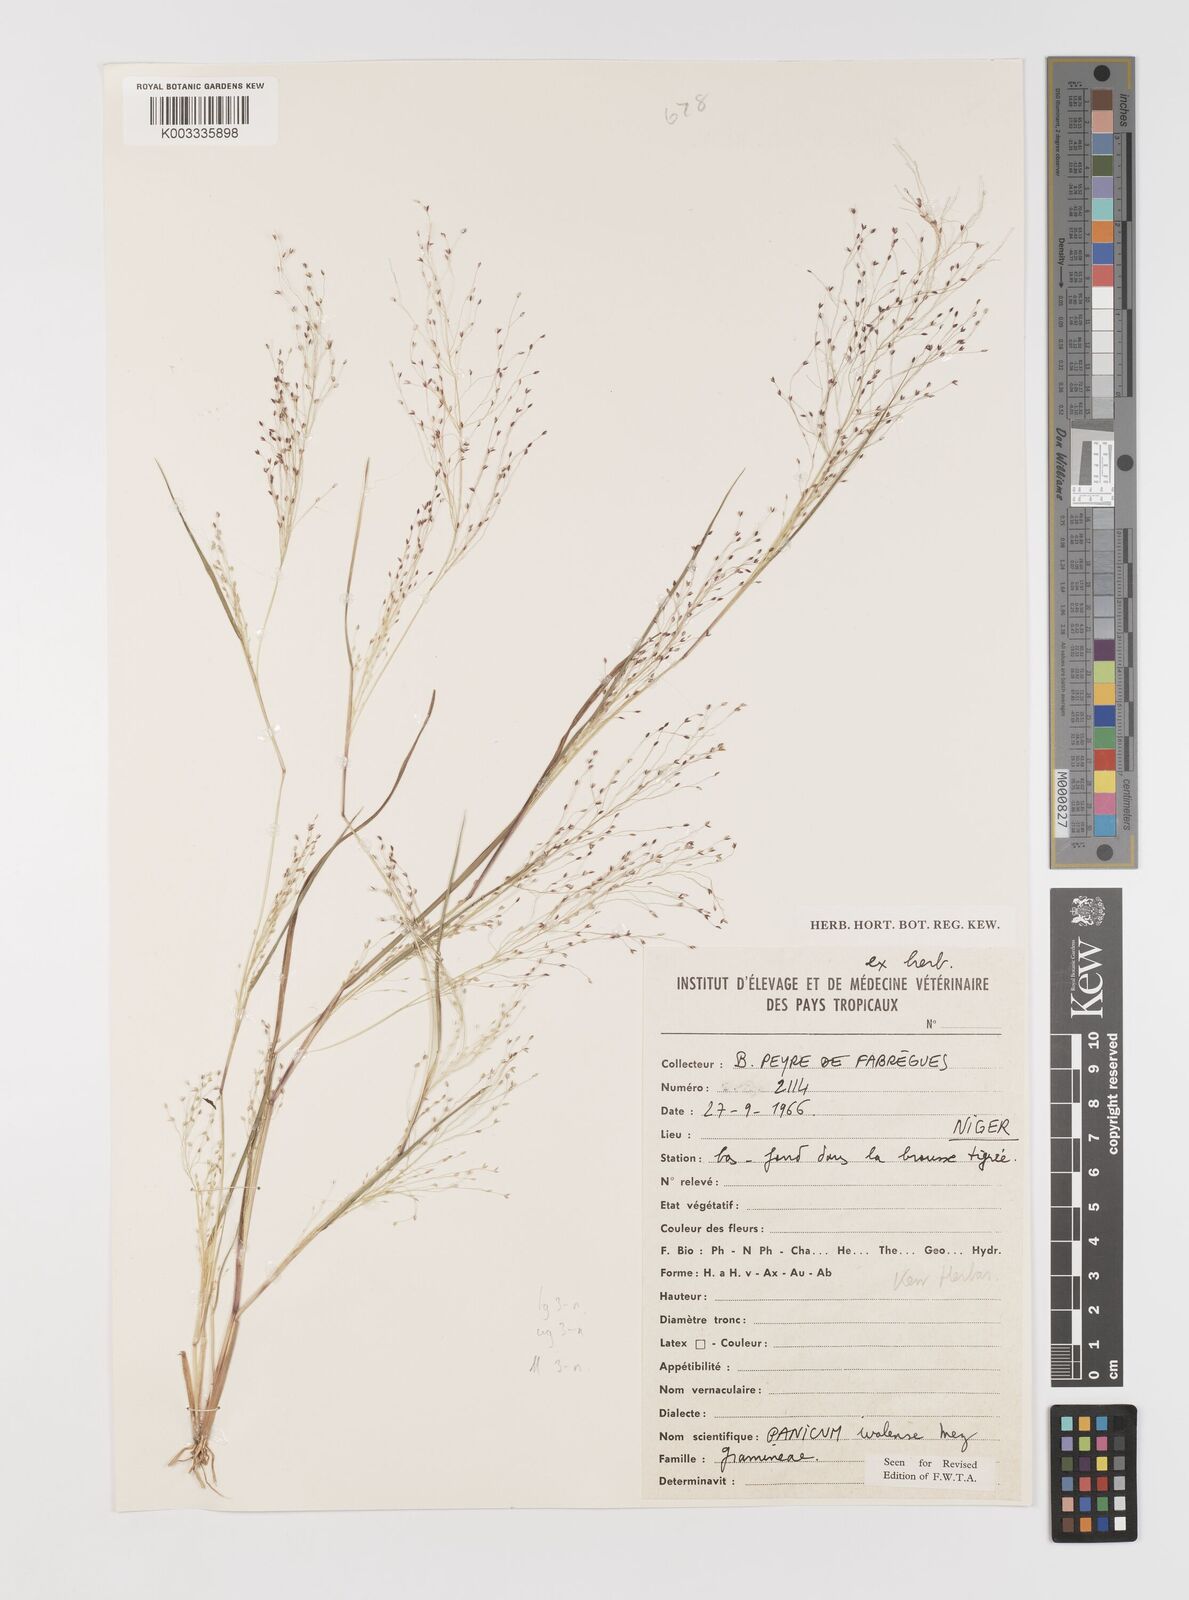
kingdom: Plantae
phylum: Tracheophyta
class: Liliopsida
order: Poales
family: Poaceae
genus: Panicum
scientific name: Panicum humile
